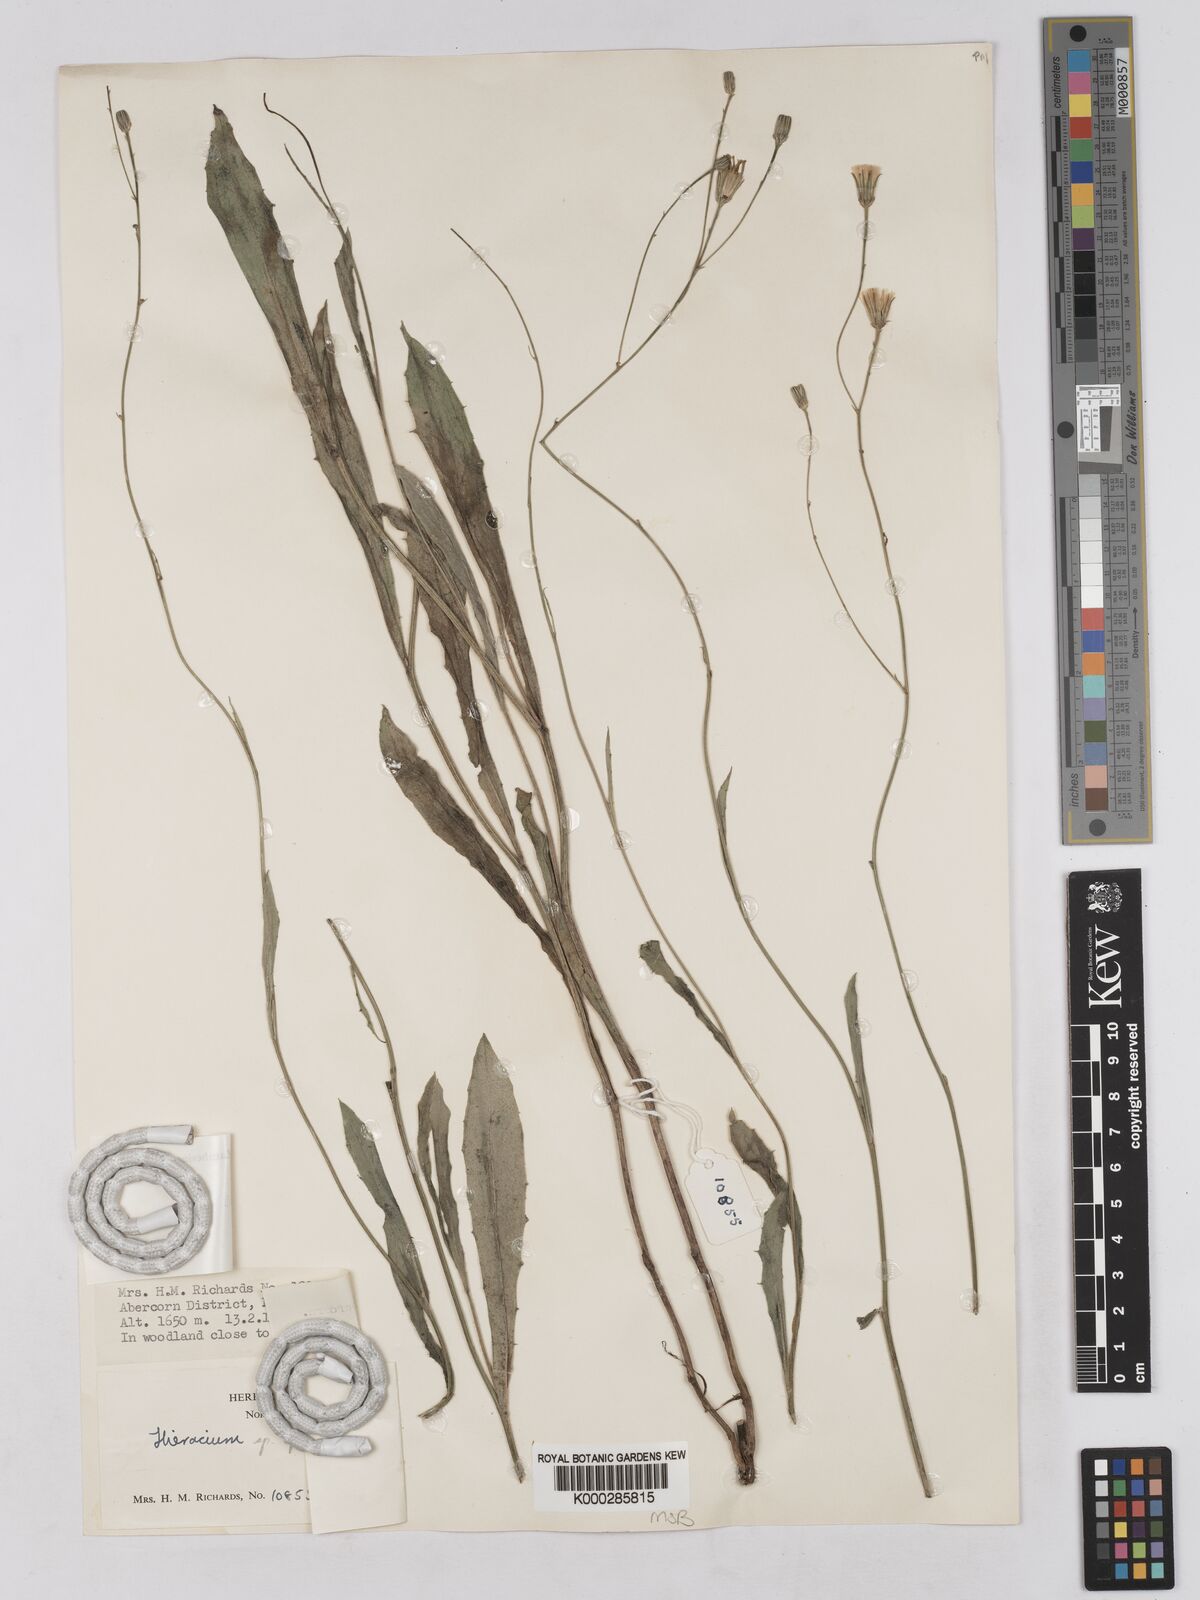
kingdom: Plantae
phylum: Tracheophyta
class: Magnoliopsida
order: Asterales
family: Asteraceae
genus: Tolpis
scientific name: Tolpis mbalensis
